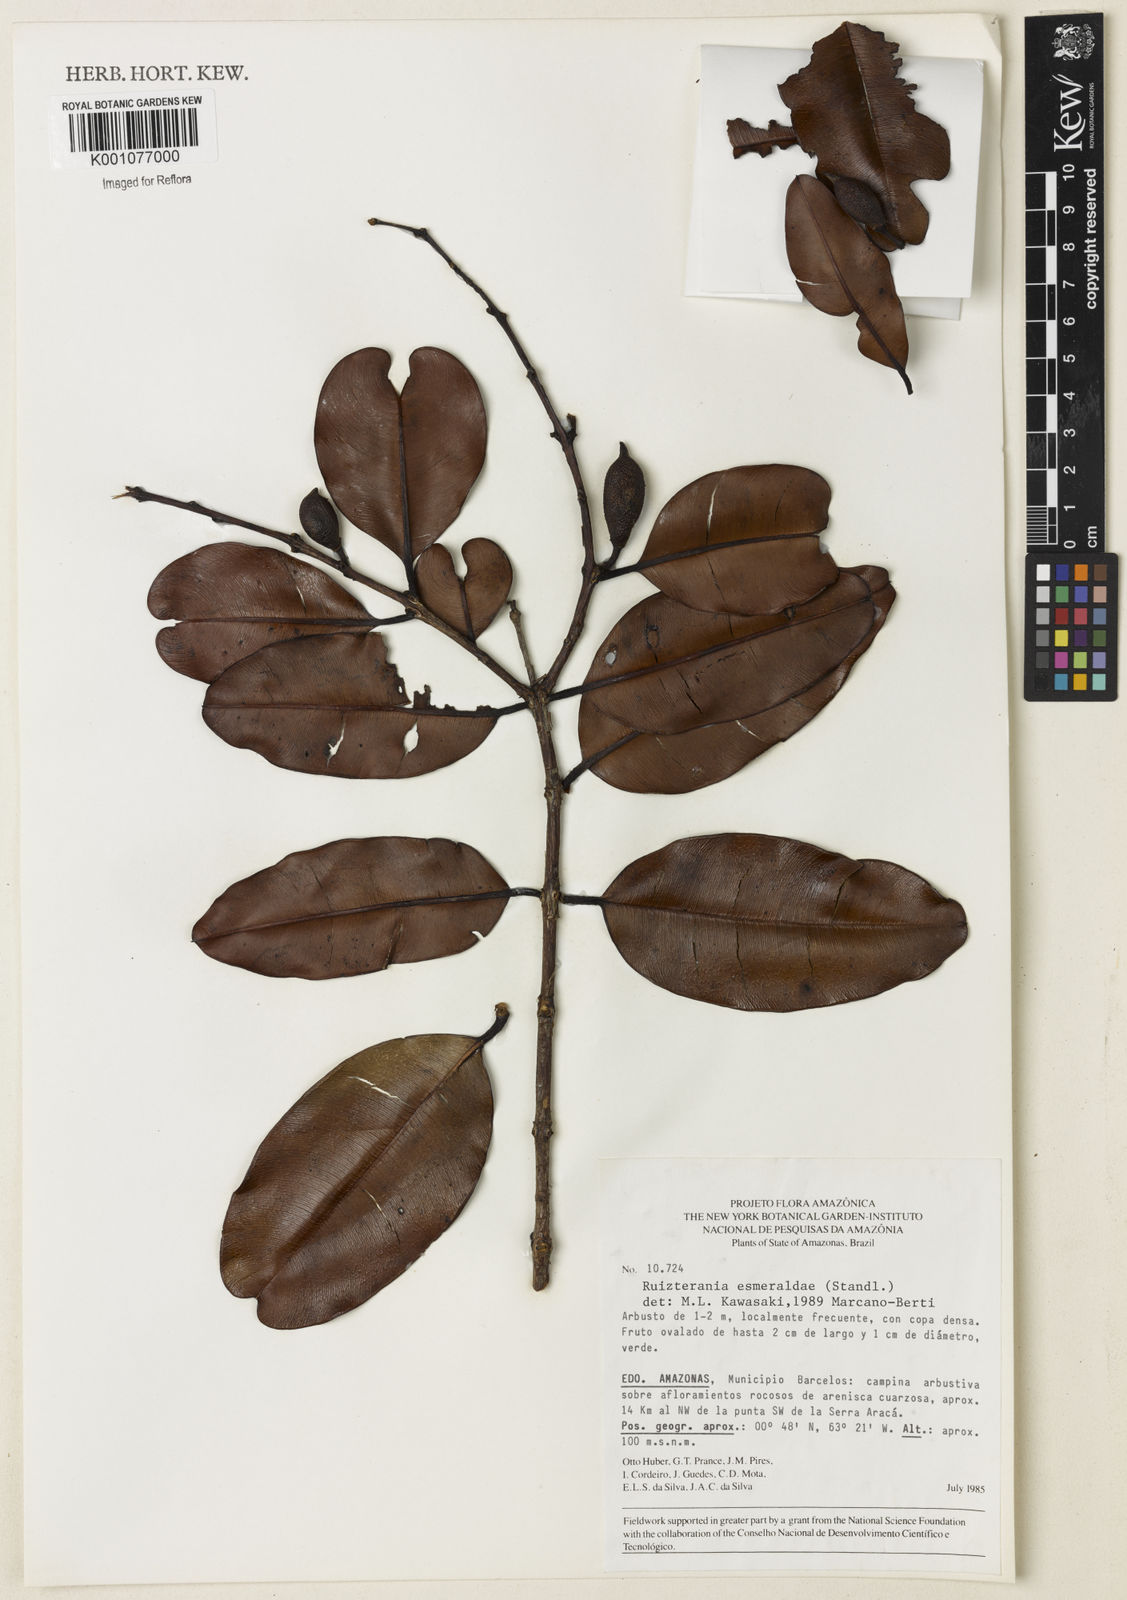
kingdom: Plantae
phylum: Tracheophyta
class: Magnoliopsida
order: Myrtales
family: Vochysiaceae
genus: Ruizterania
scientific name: Ruizterania esmeraldae
